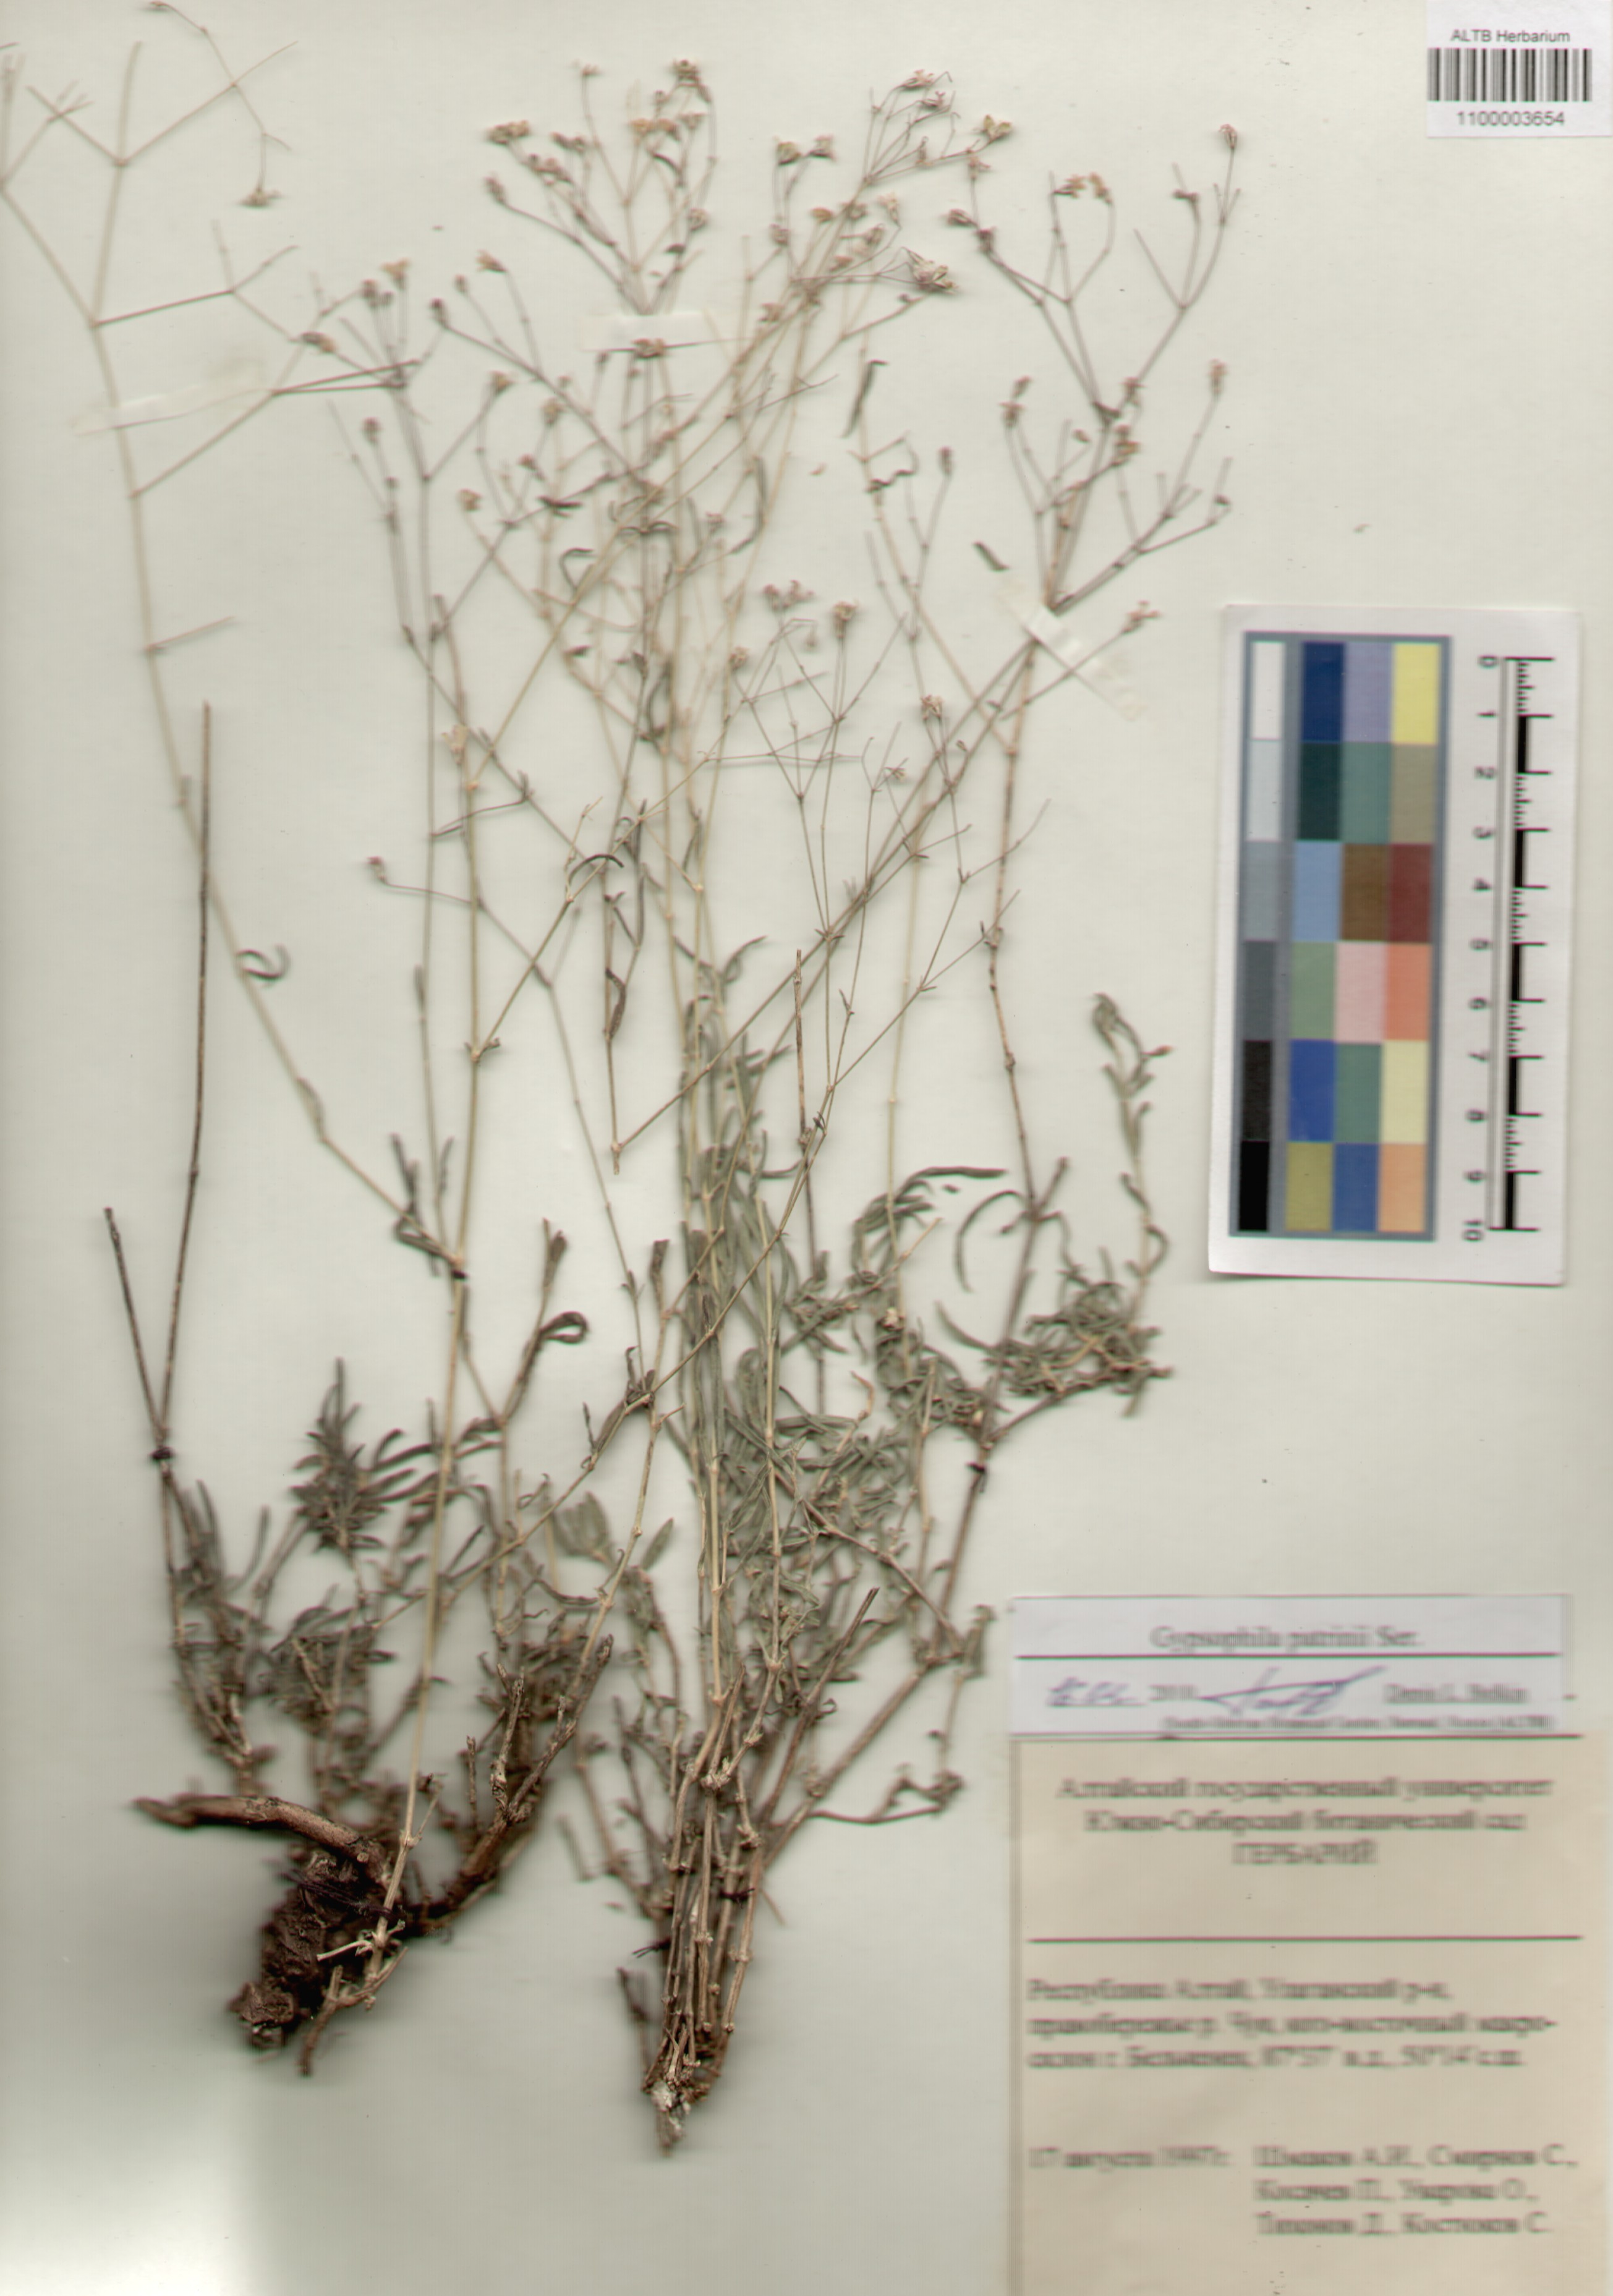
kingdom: Plantae
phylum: Tracheophyta
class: Magnoliopsida
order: Caryophyllales
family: Caryophyllaceae
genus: Gypsophila
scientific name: Gypsophila patrinii
